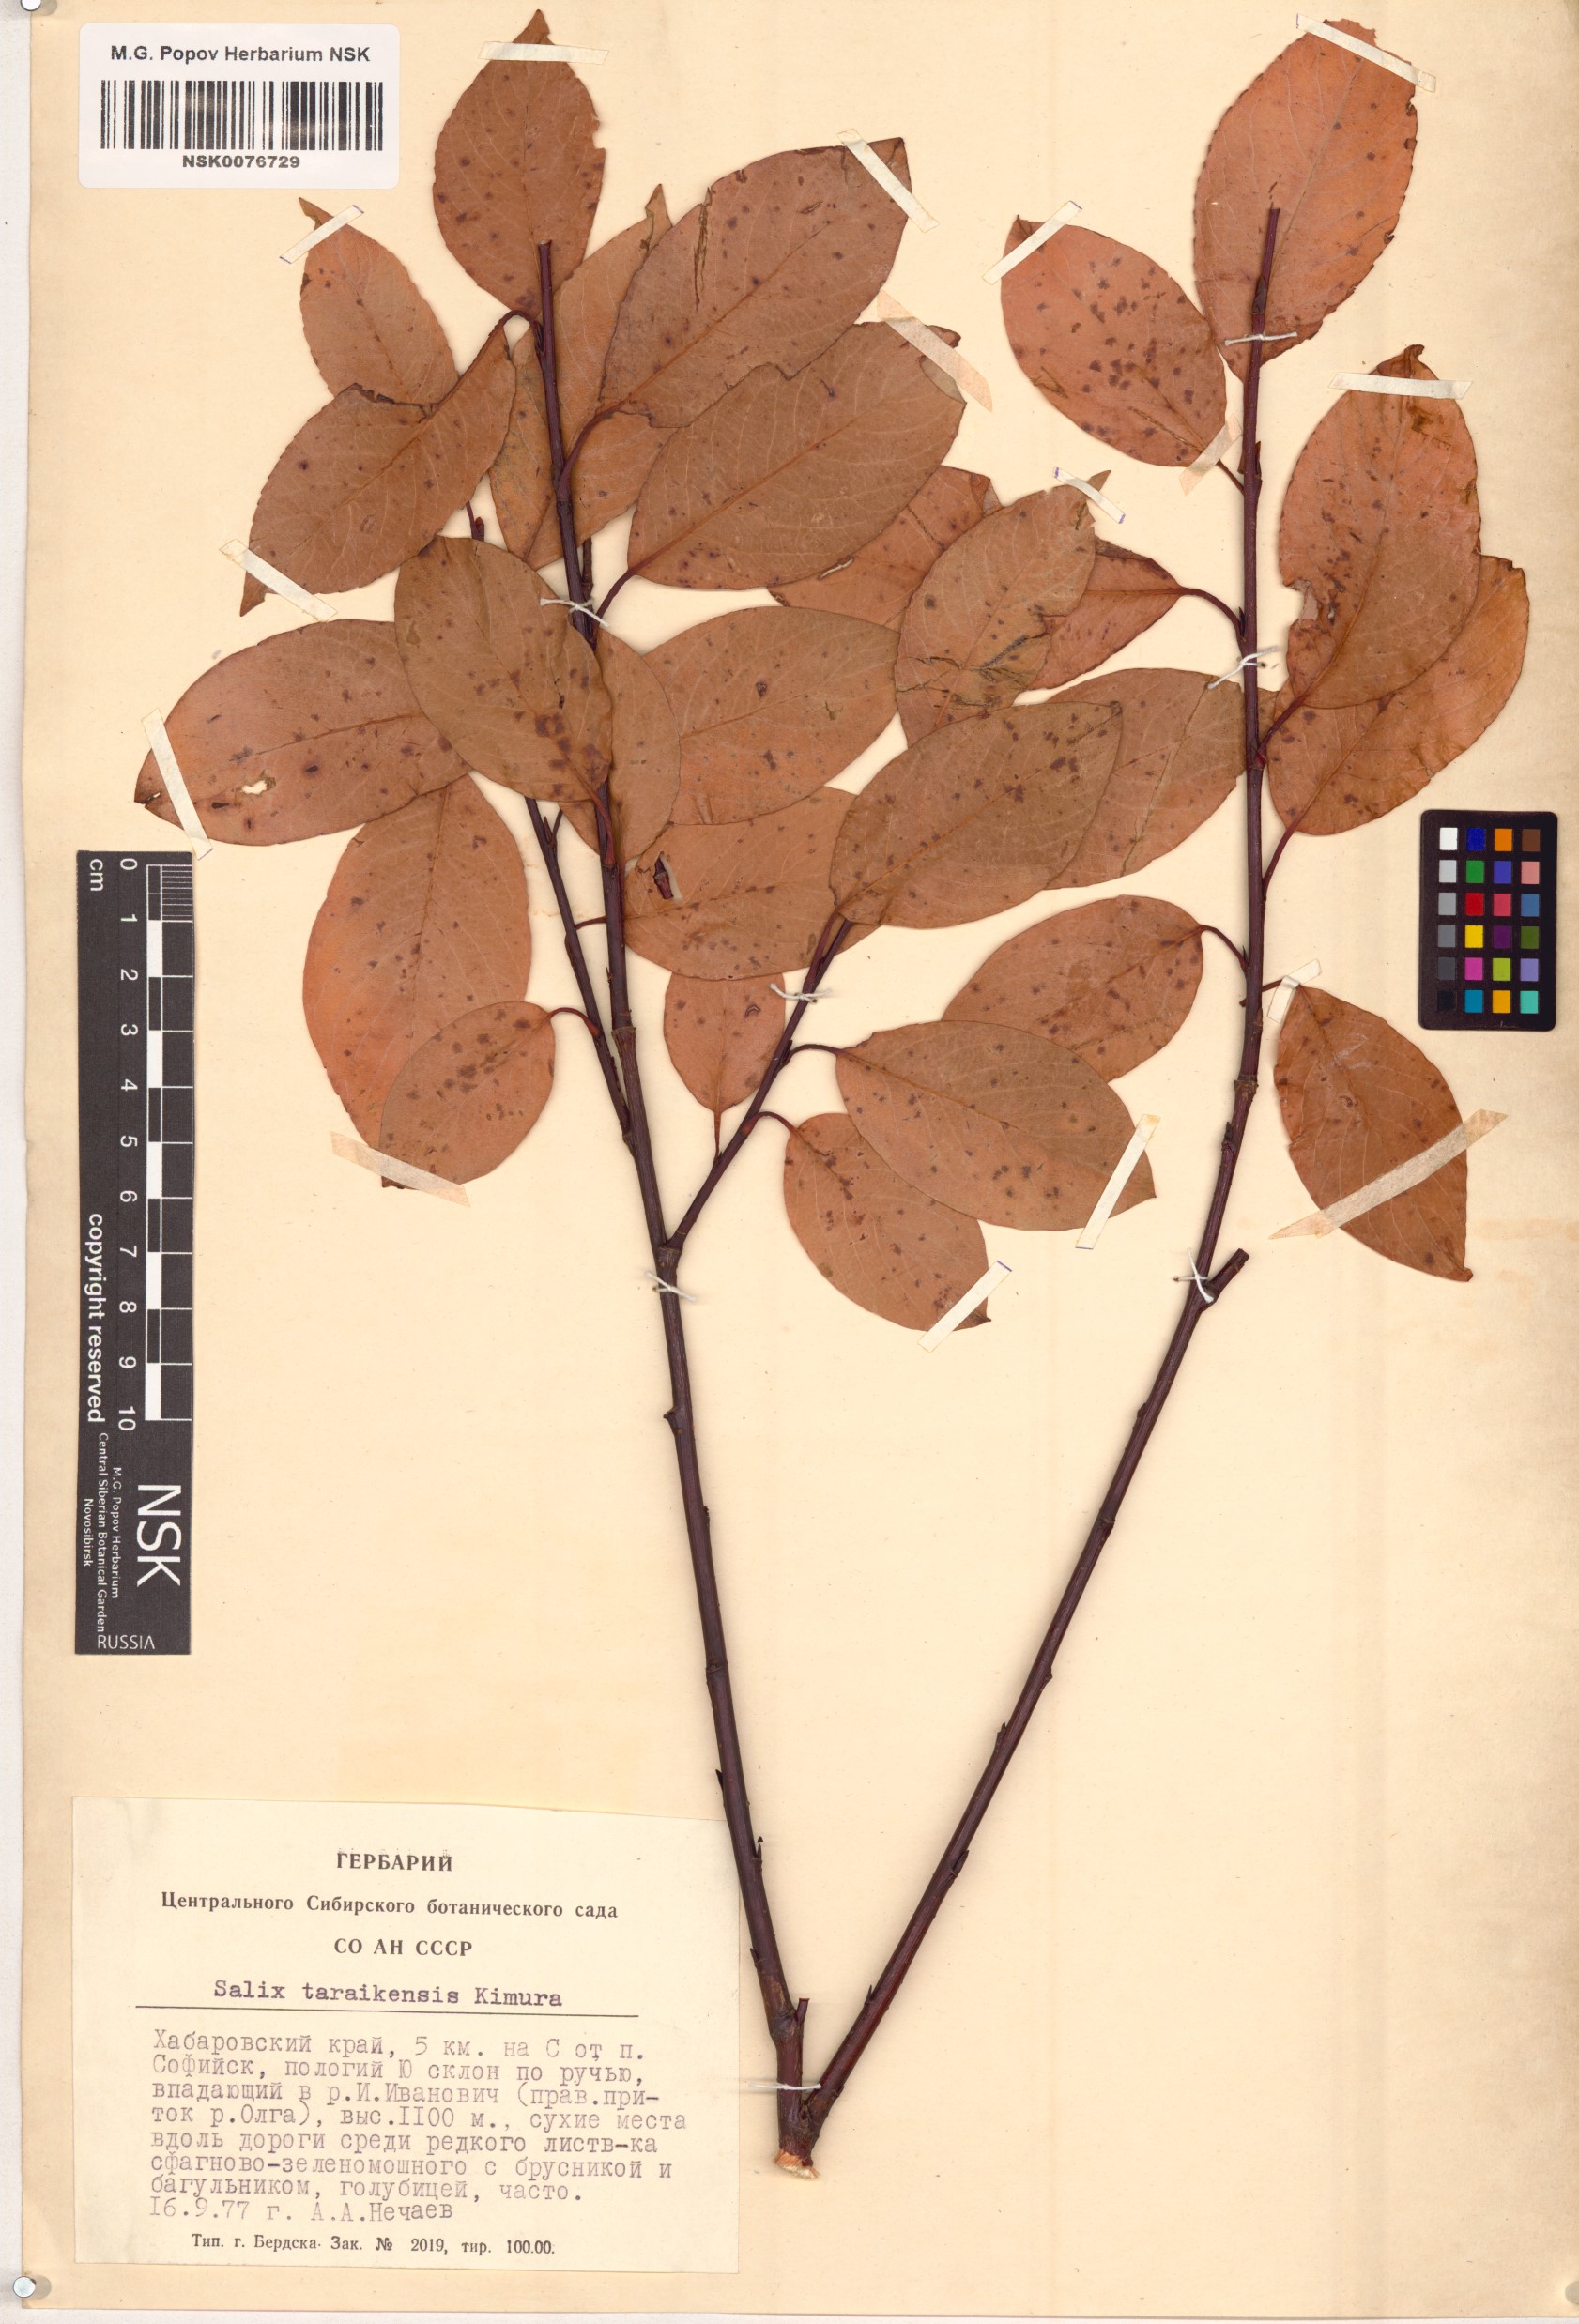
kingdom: Plantae
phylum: Tracheophyta
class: Magnoliopsida
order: Malpighiales
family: Salicaceae
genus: Salix
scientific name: Salix taraikensis
